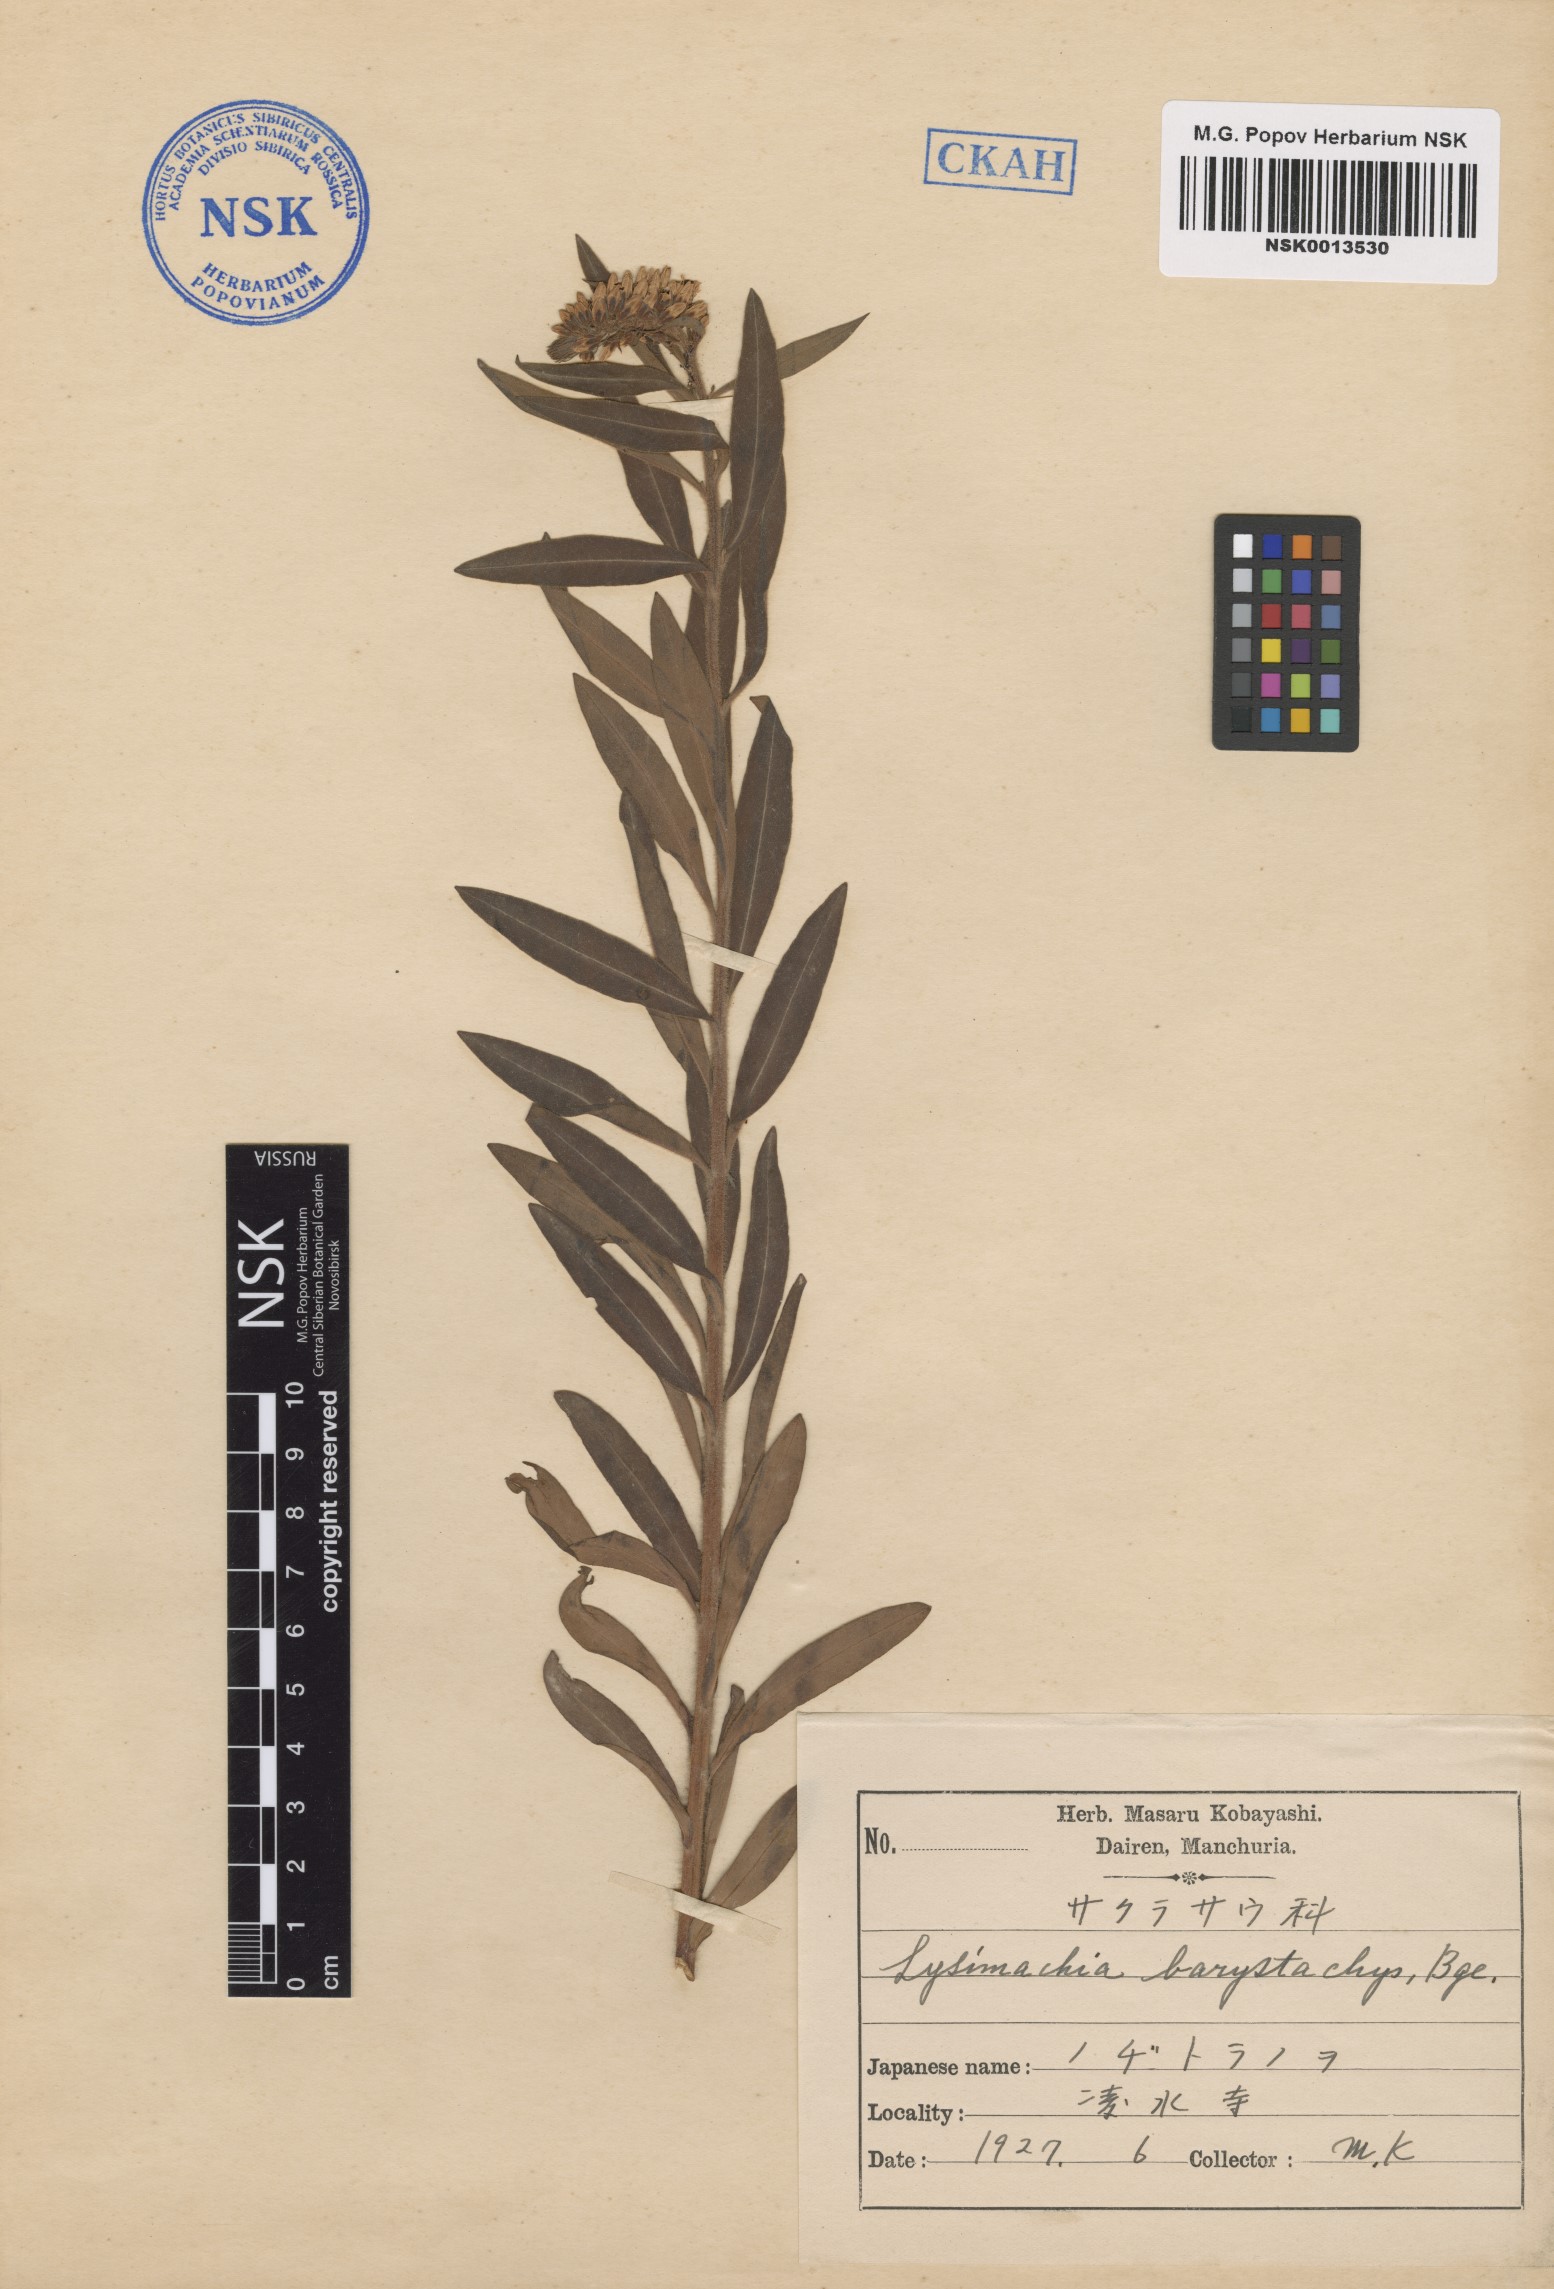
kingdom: Plantae
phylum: Tracheophyta
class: Magnoliopsida
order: Ericales
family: Primulaceae
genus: Lysimachia
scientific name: Lysimachia barystachys
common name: Manchurian yellow loosestrife
